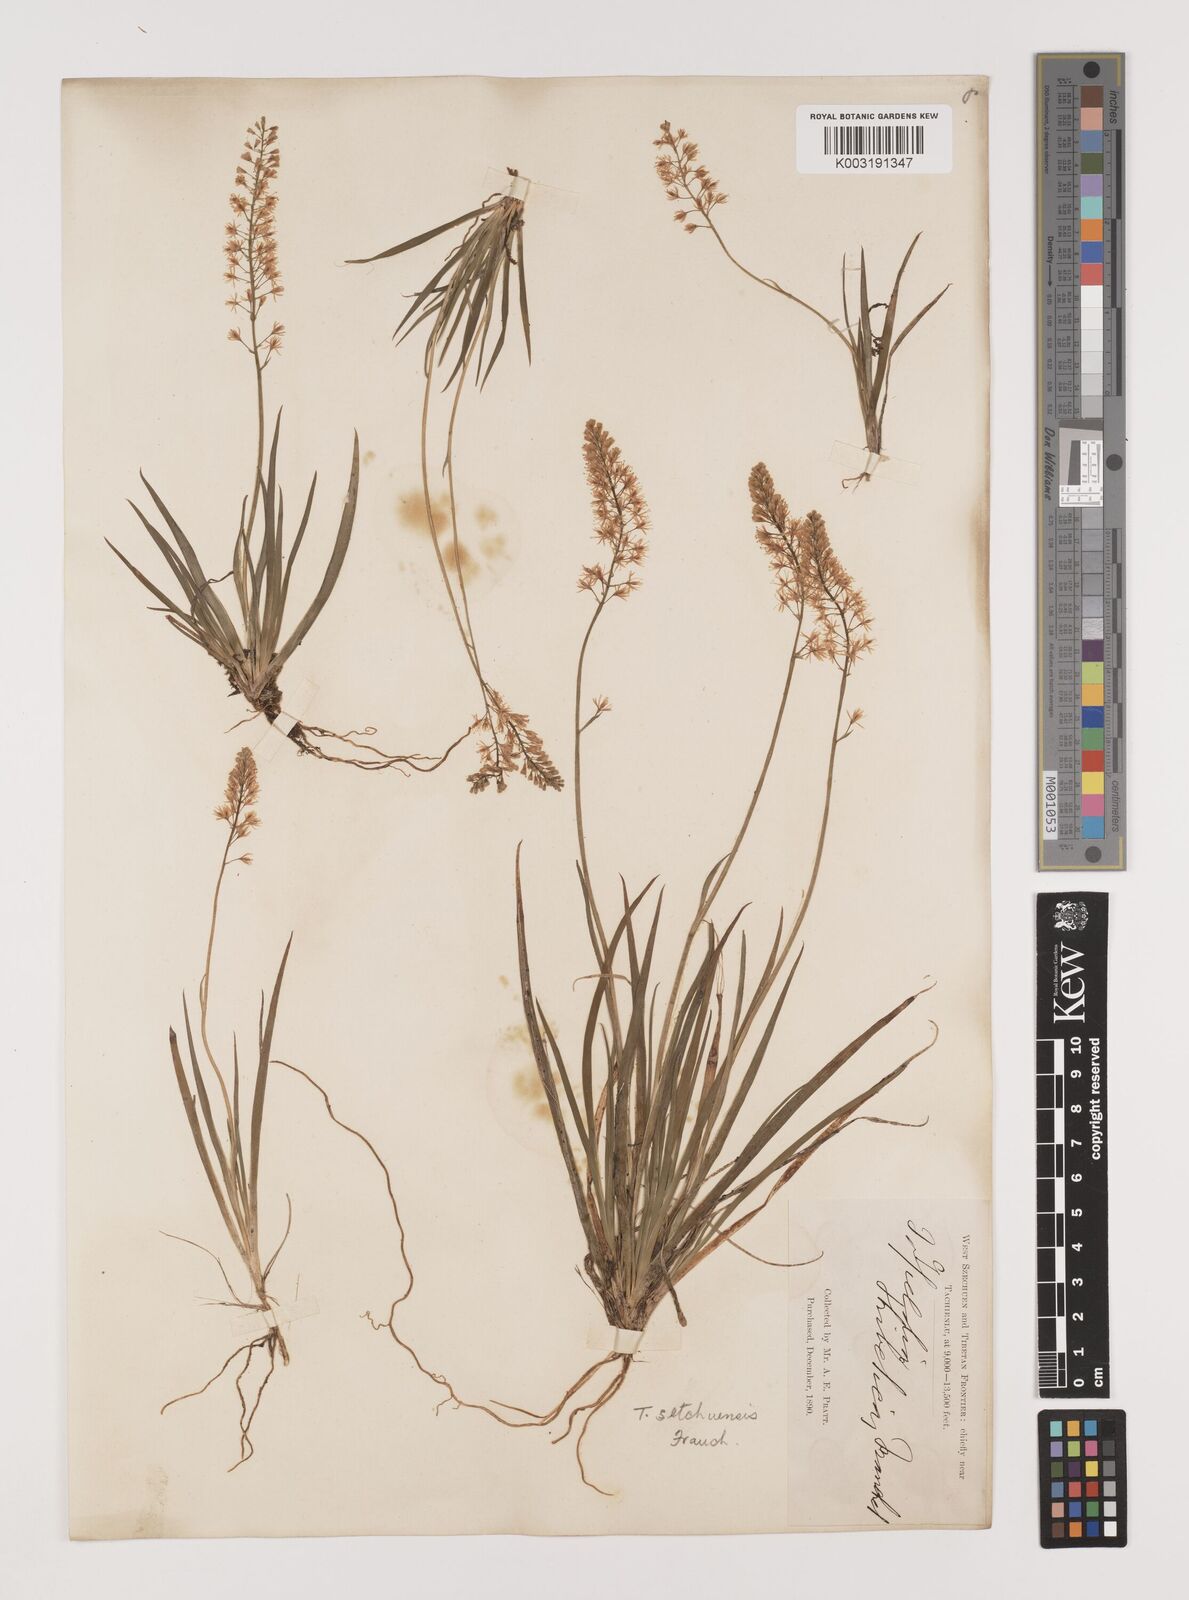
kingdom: Plantae
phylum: Tracheophyta
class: Liliopsida
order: Alismatales
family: Tofieldiaceae
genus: Tofieldia
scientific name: Tofieldia thibetica
